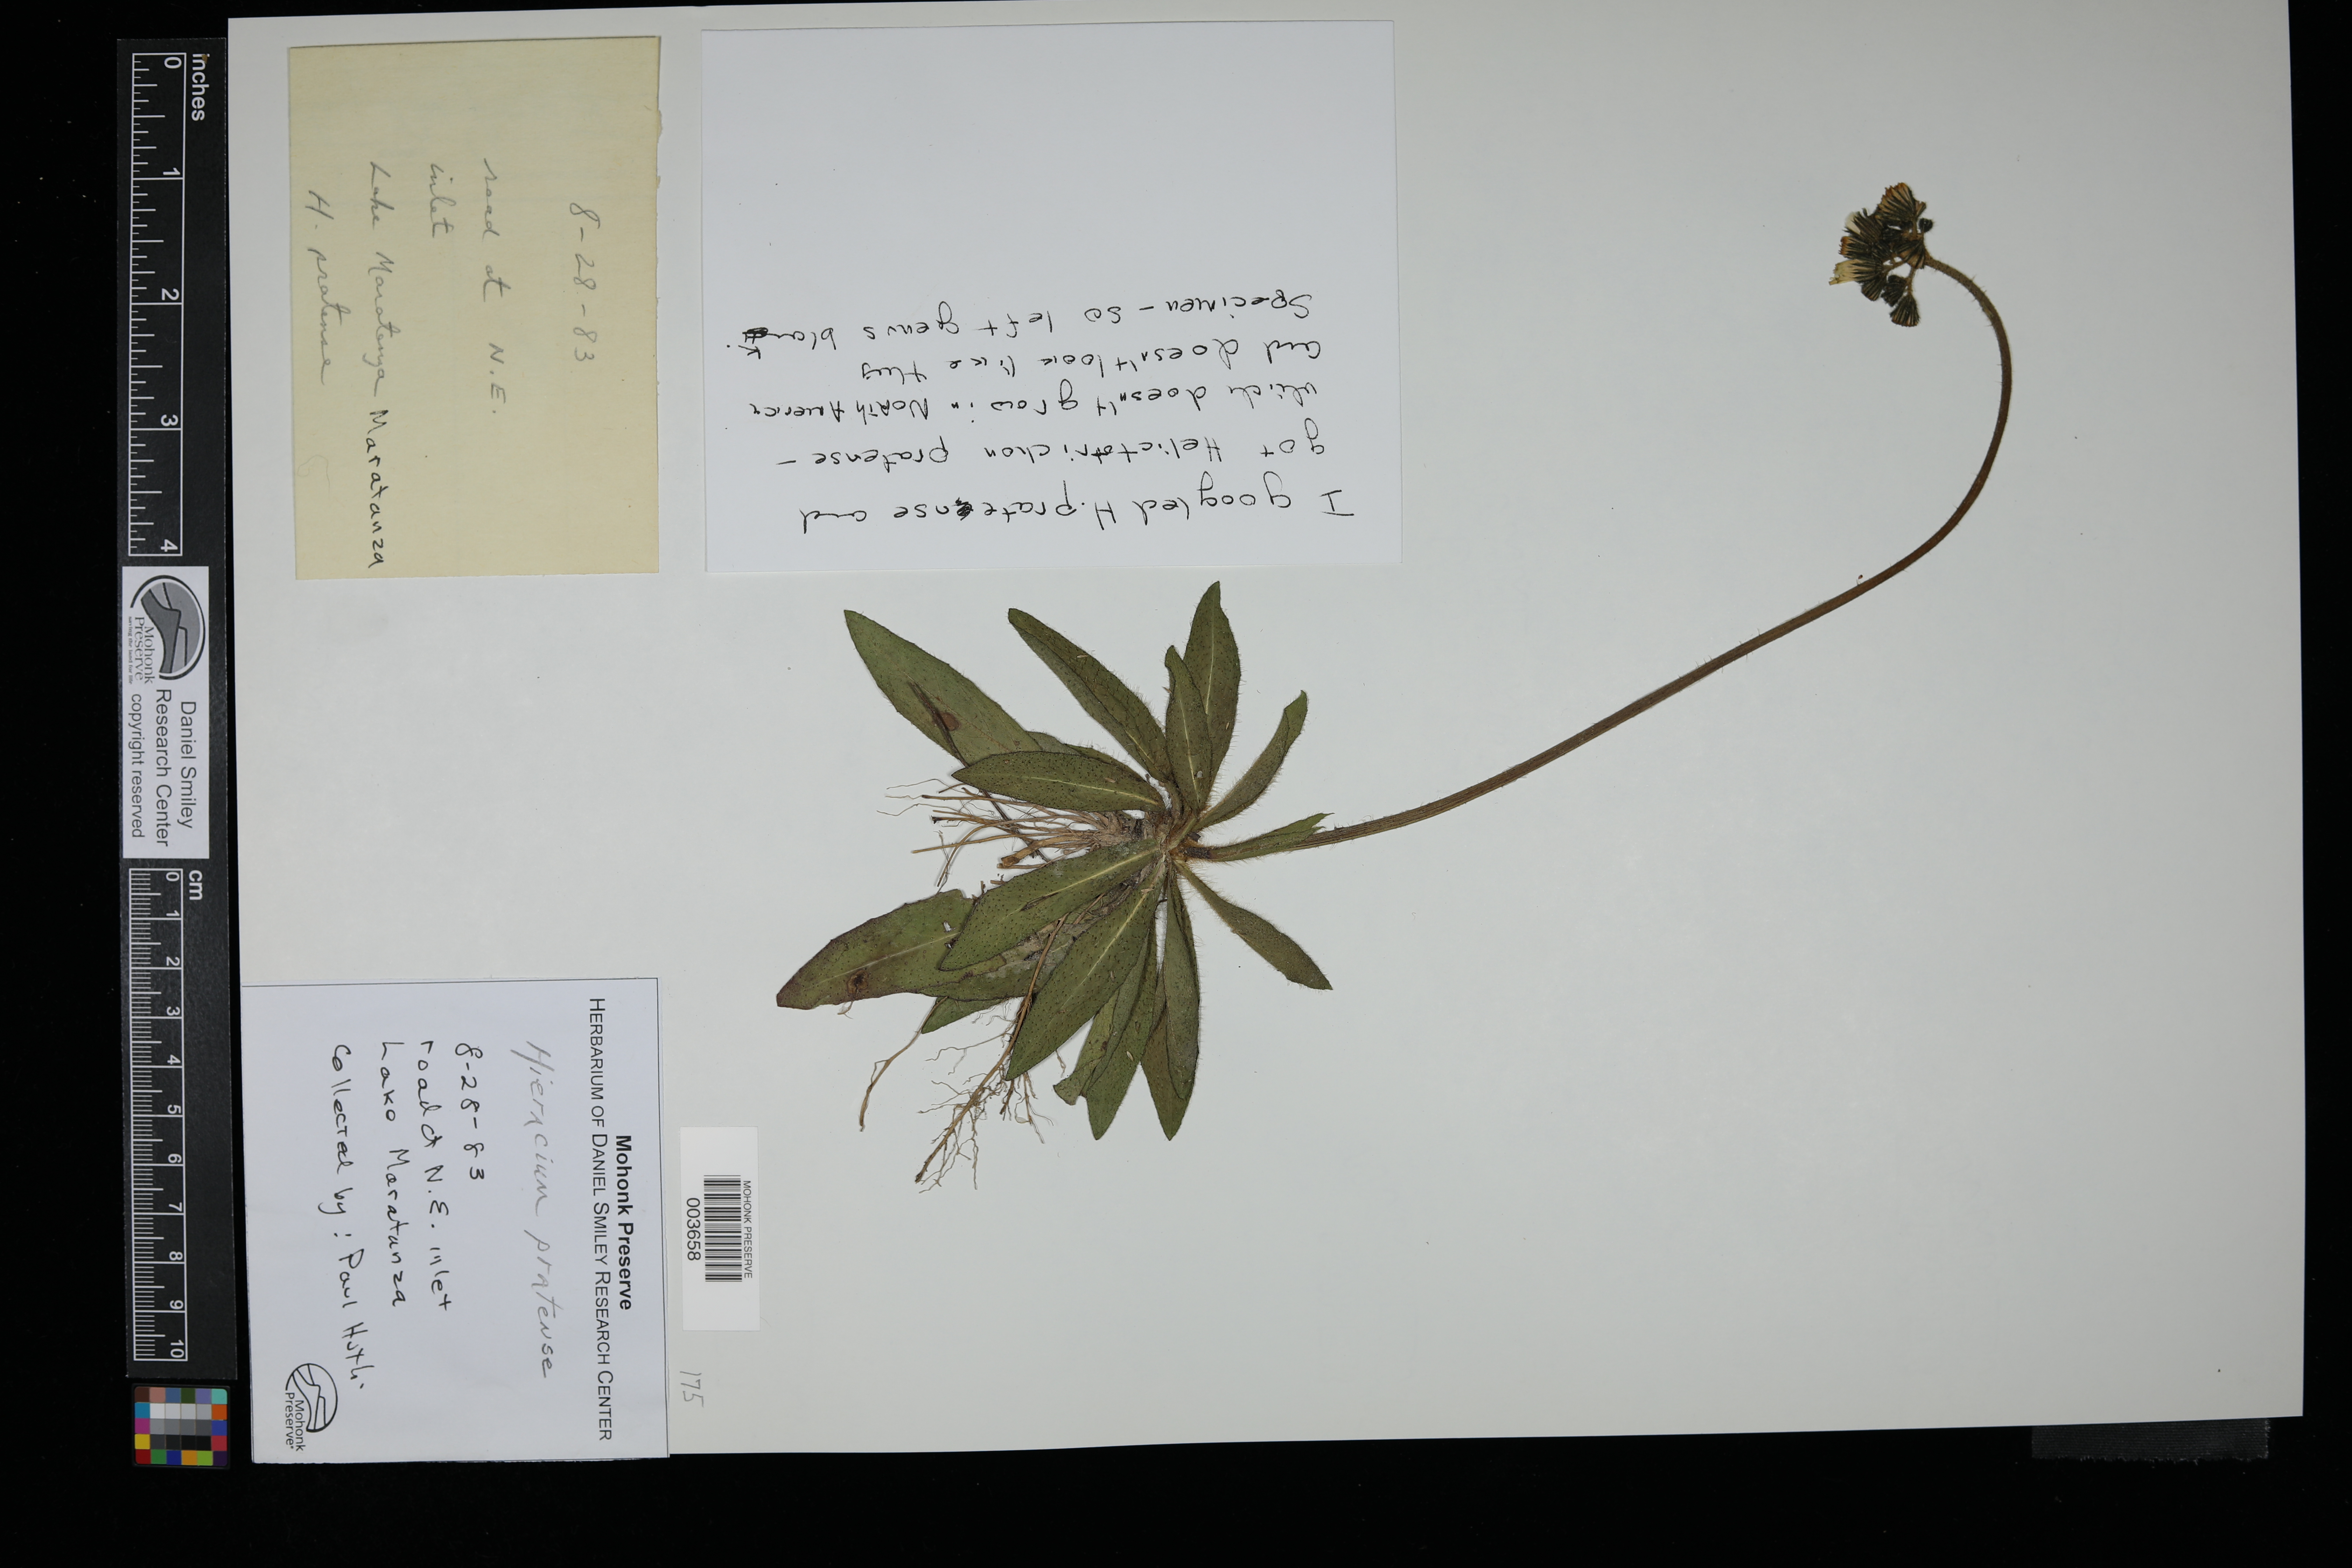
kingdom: Plantae
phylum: Tracheophyta
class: Magnoliopsida
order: Asterales
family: Asteraceae
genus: Pilosella
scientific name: Pilosella caespitosa
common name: Yellow fox-and-cubs
